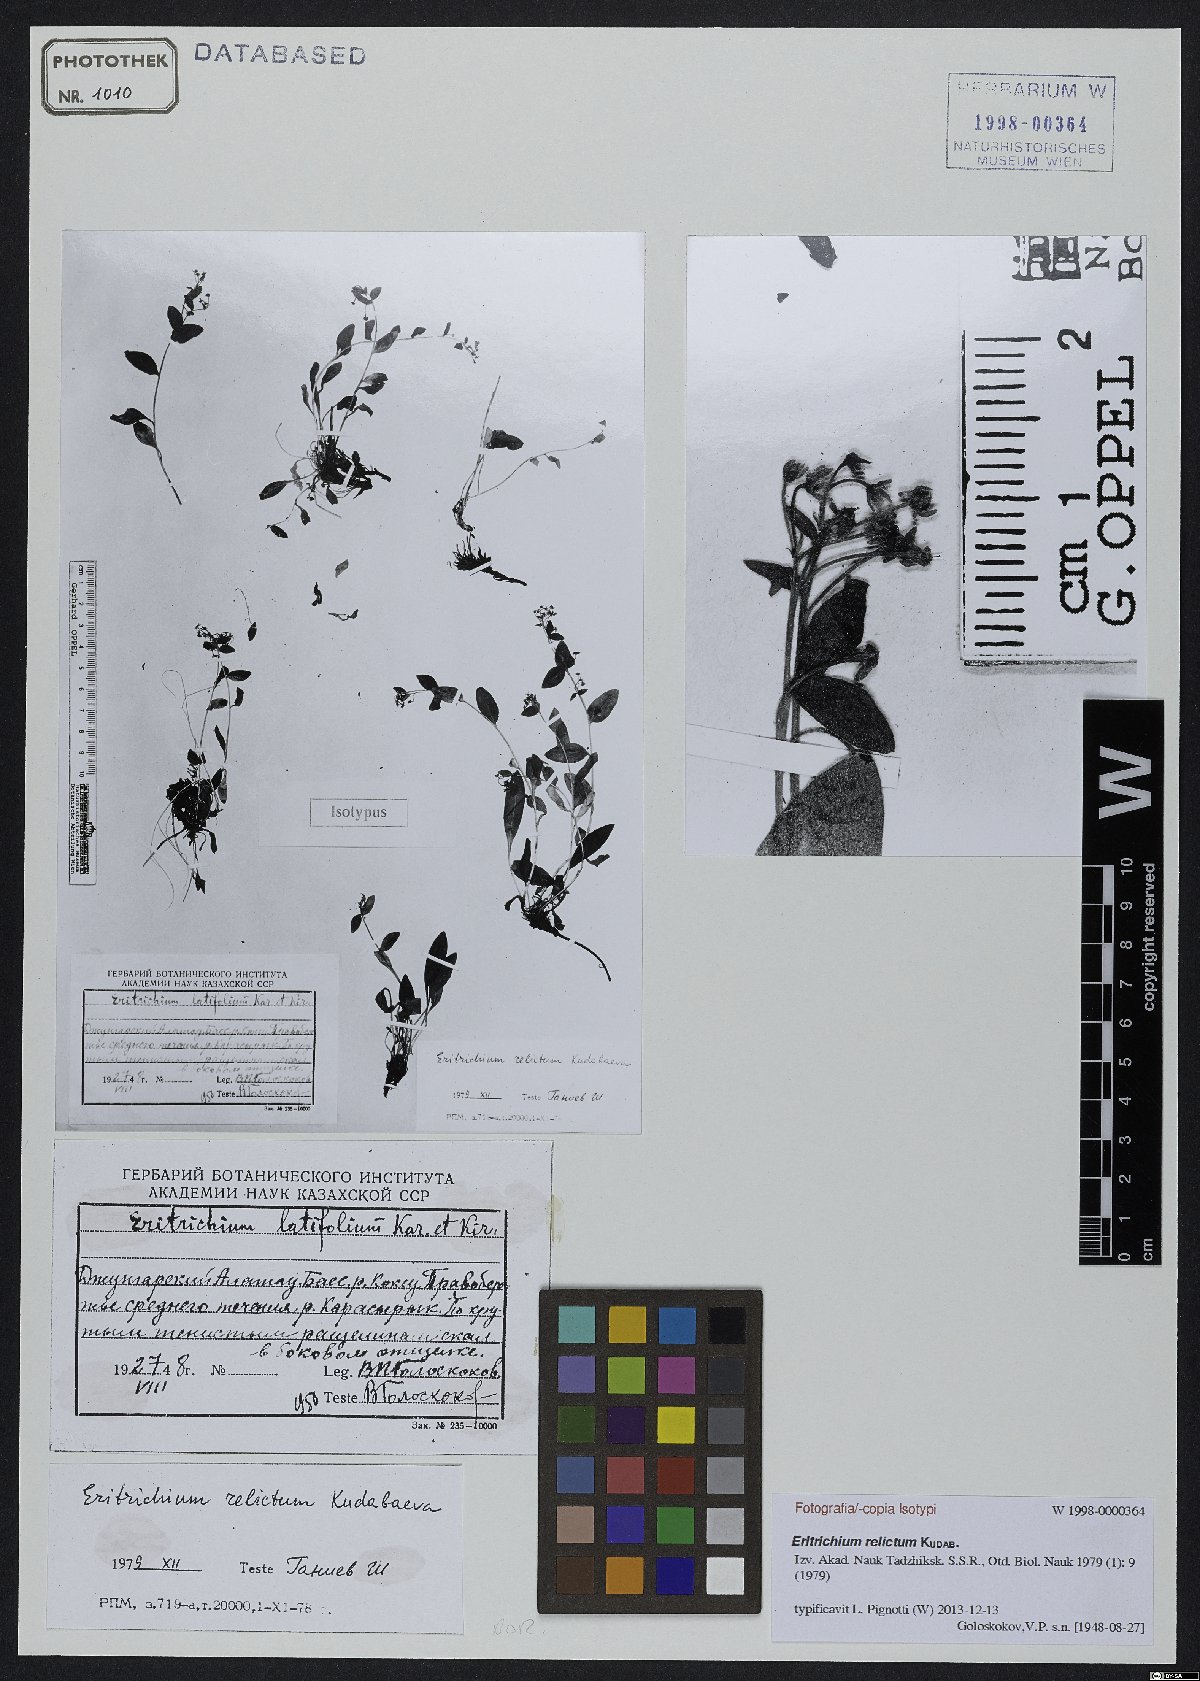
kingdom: Plantae
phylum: Tracheophyta
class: Magnoliopsida
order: Boraginales
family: Boraginaceae
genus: Eritrichium
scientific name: Eritrichium relictum
